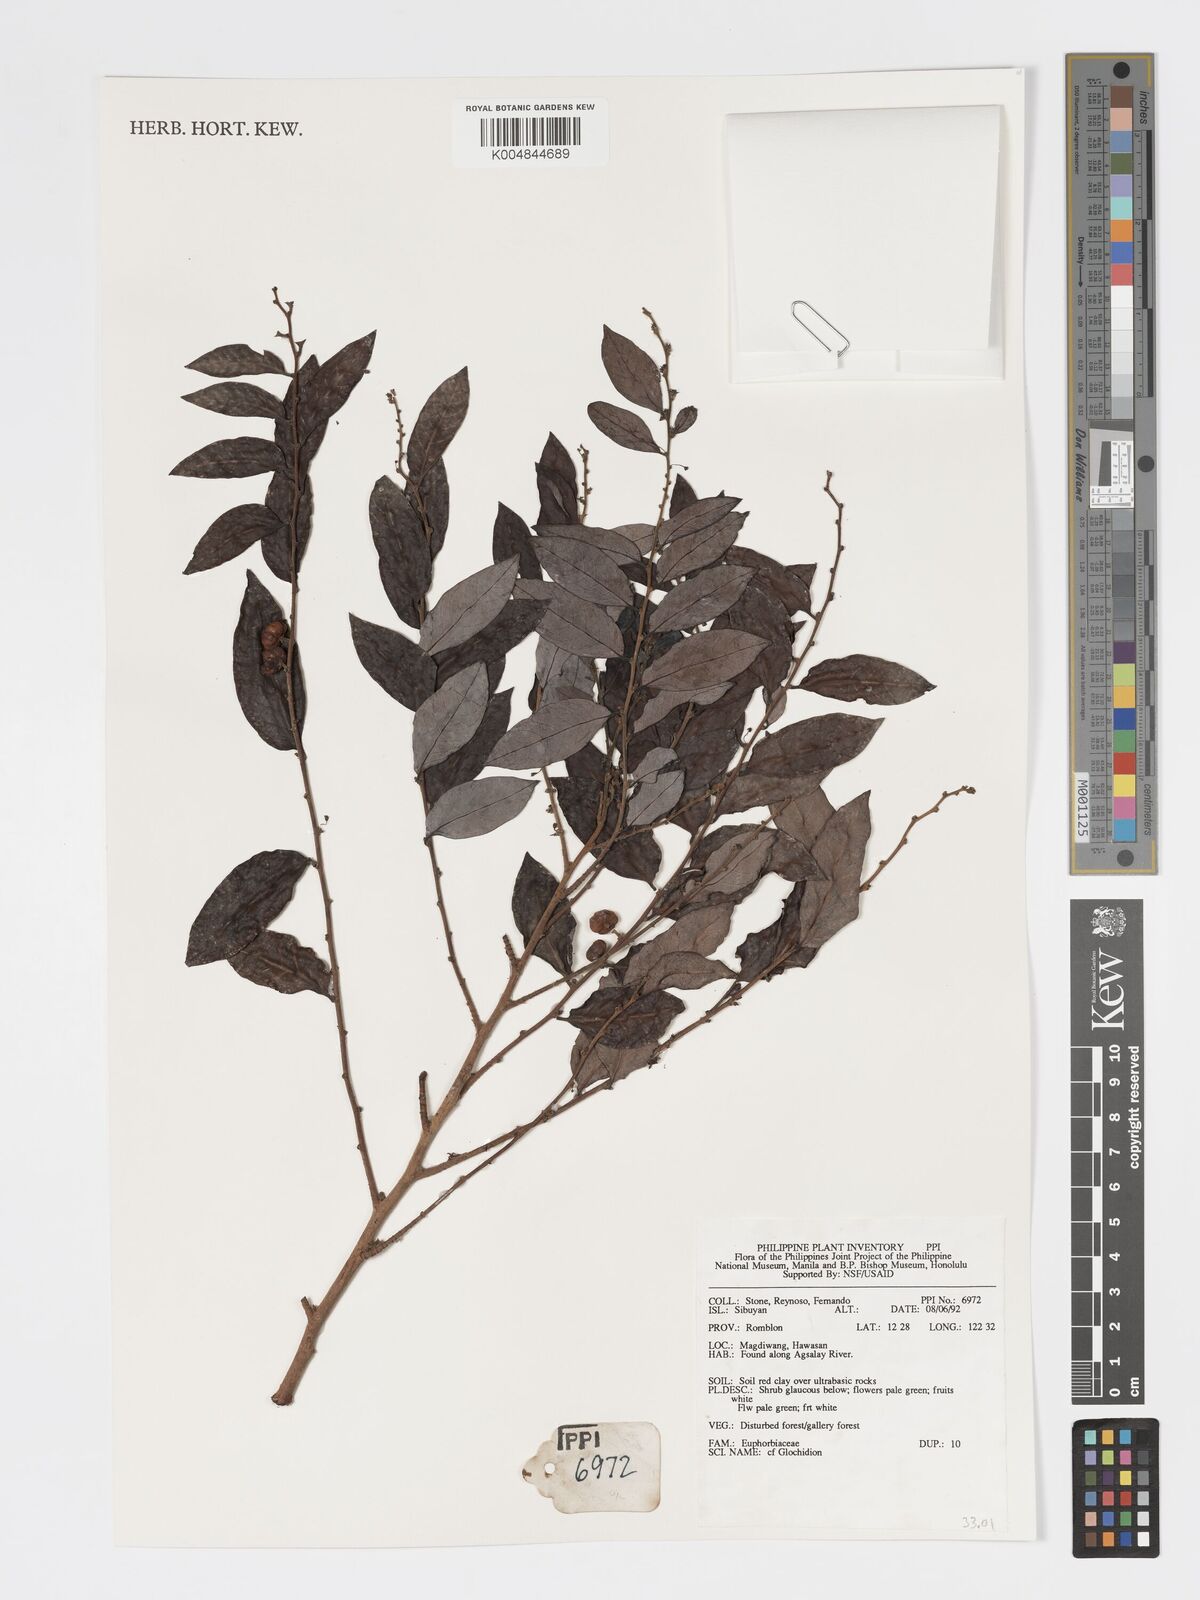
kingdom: Plantae
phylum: Tracheophyta
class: Magnoliopsida
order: Malpighiales
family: Phyllanthaceae
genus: Glochidion
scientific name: Glochidion
